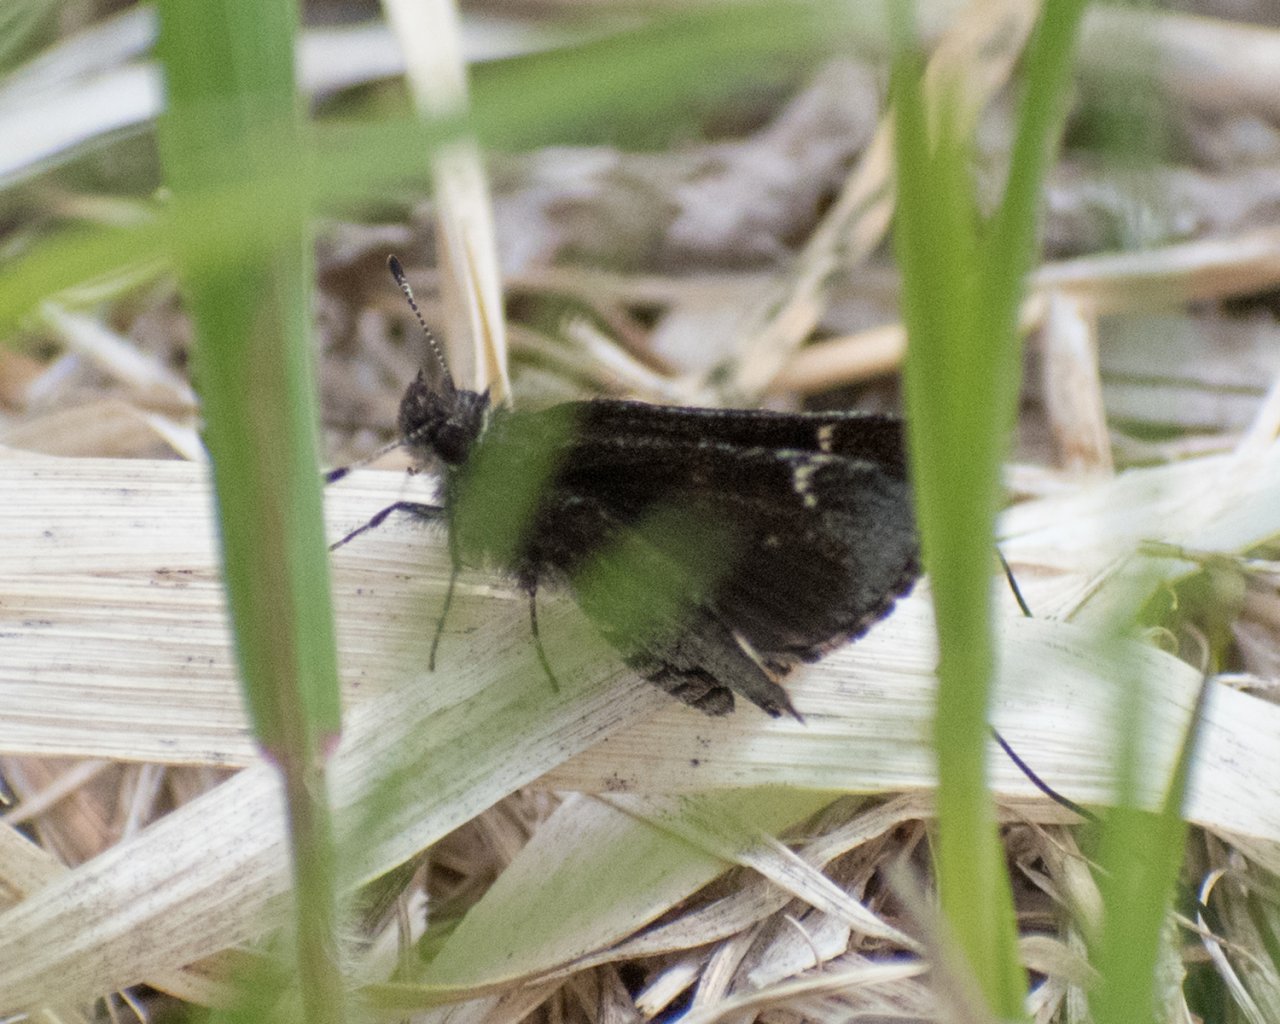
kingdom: Animalia
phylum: Arthropoda
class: Insecta
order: Lepidoptera
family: Hesperiidae
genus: Mastor
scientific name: Mastor vialis
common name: Common Roadside-Skipper
